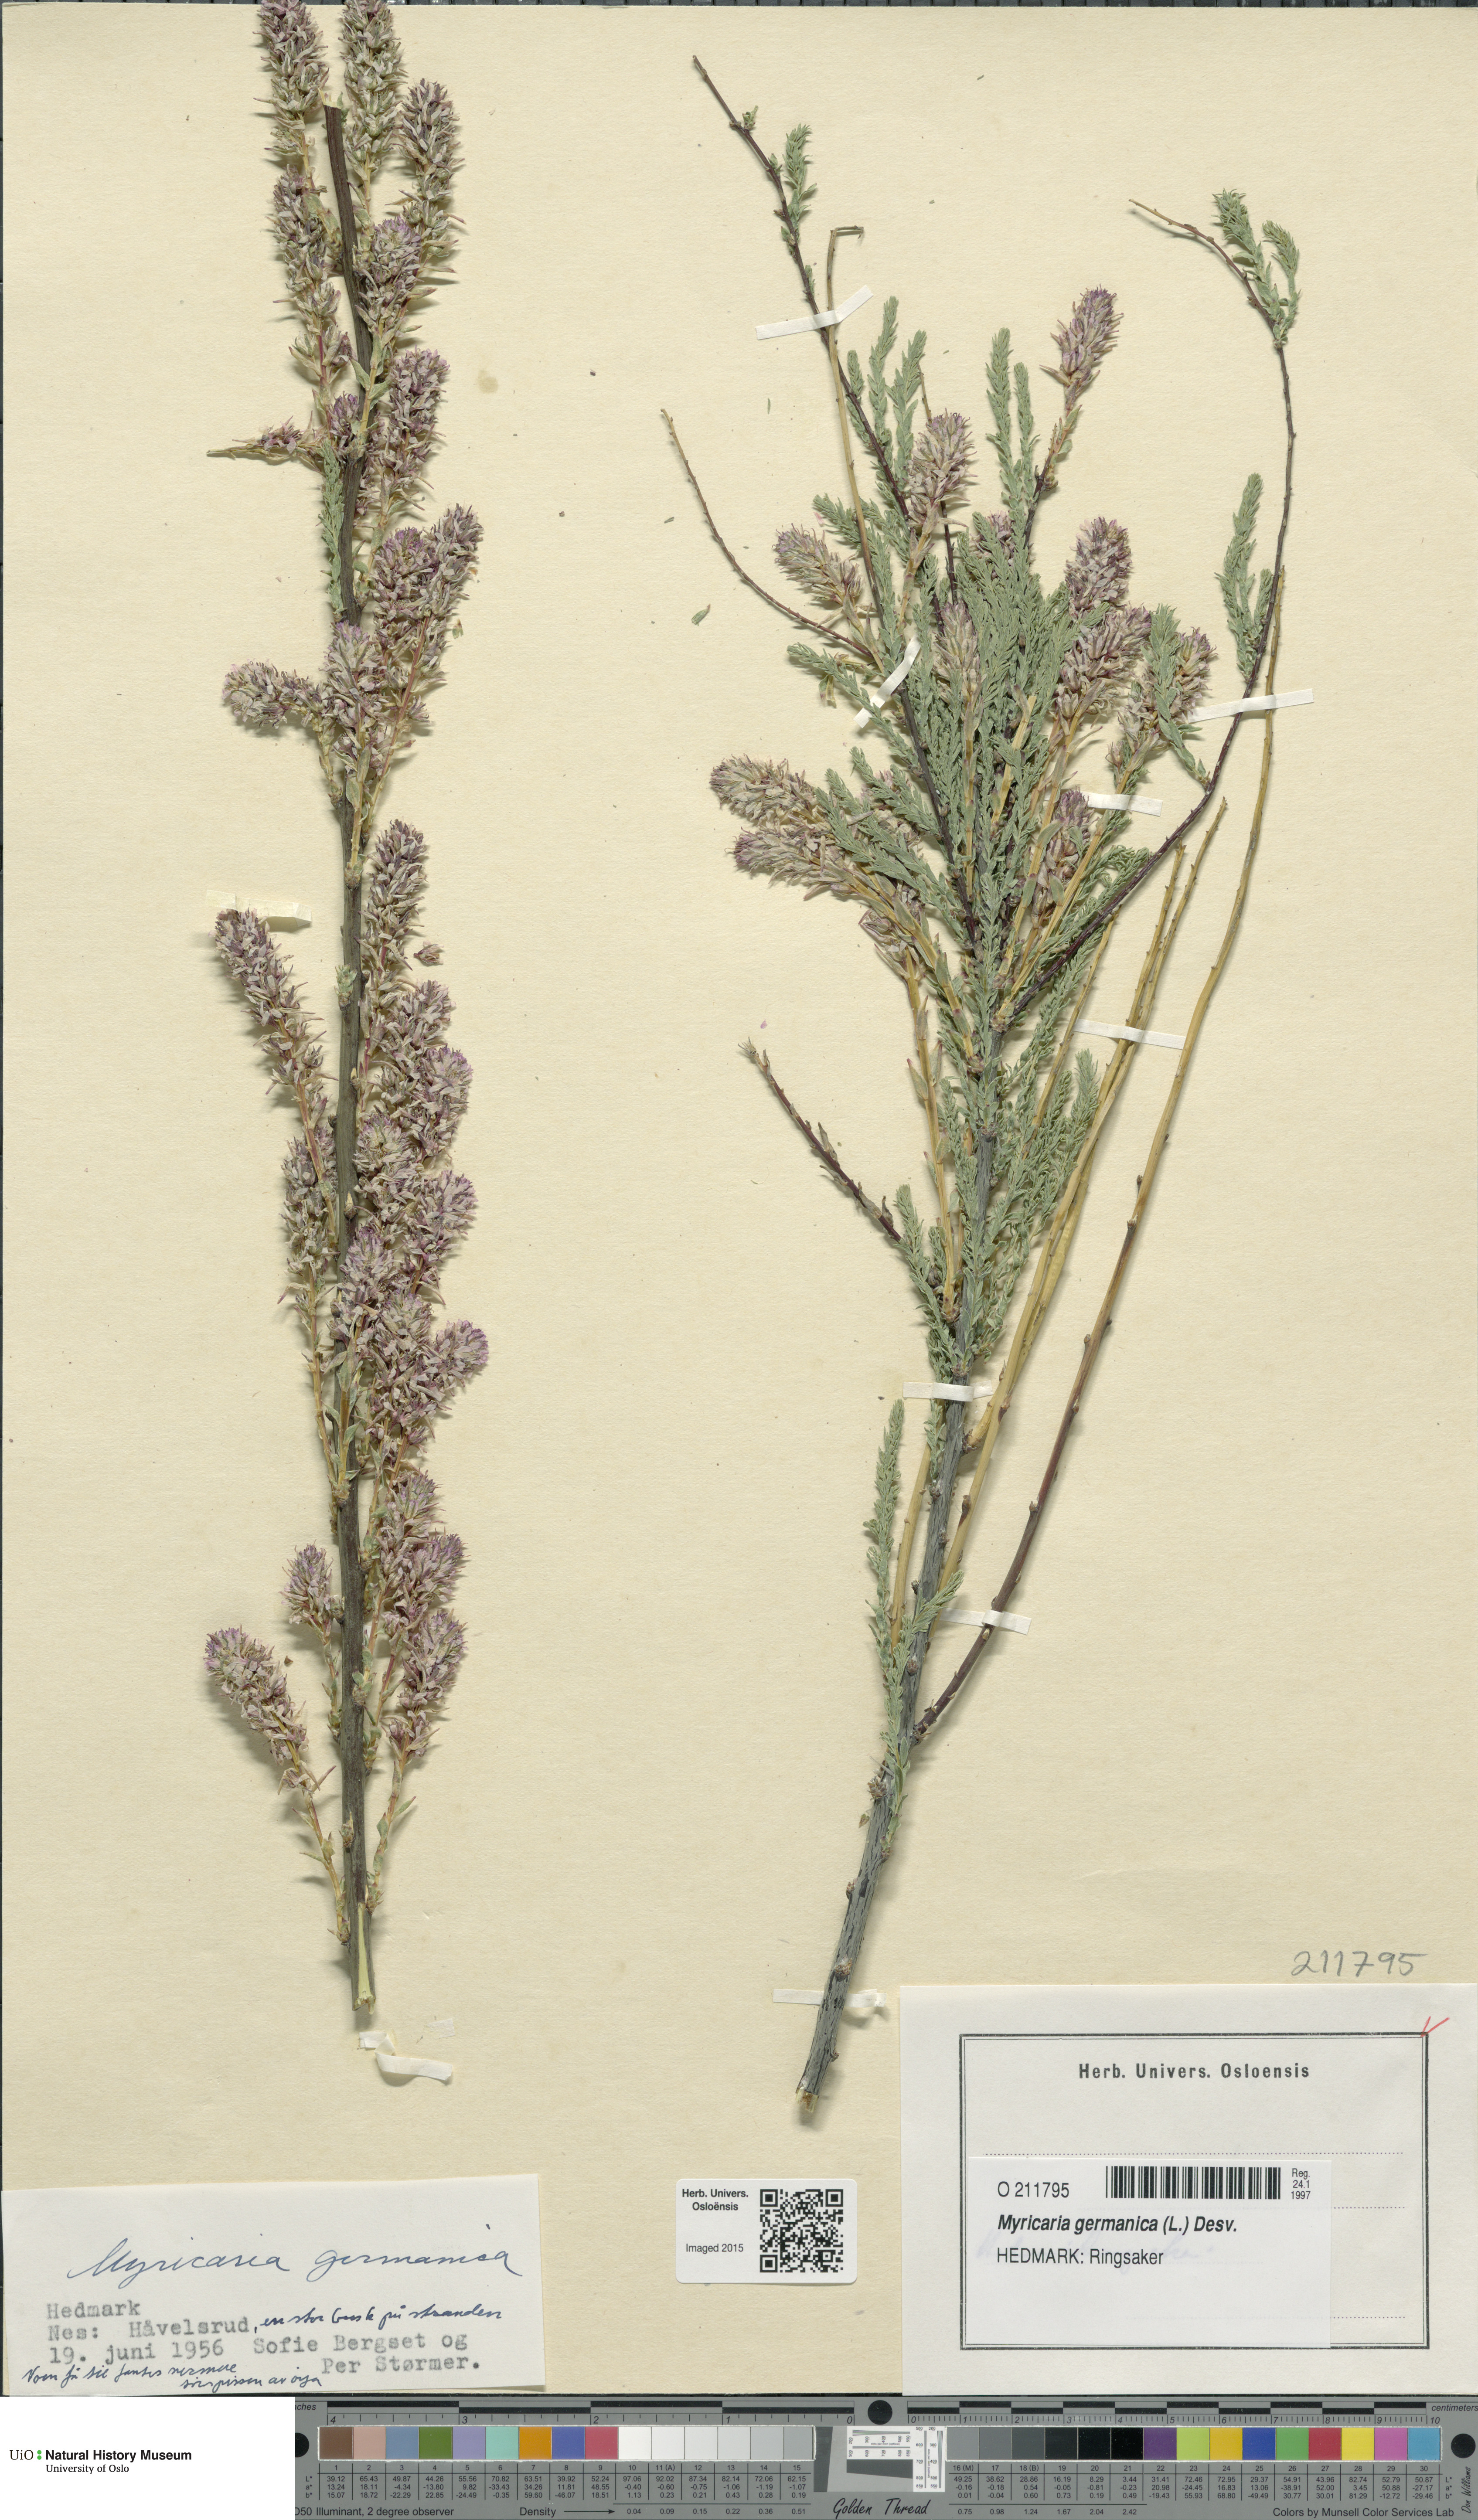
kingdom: Plantae
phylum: Tracheophyta
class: Magnoliopsida
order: Caryophyllales
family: Tamaricaceae
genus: Myricaria
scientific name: Myricaria germanica
